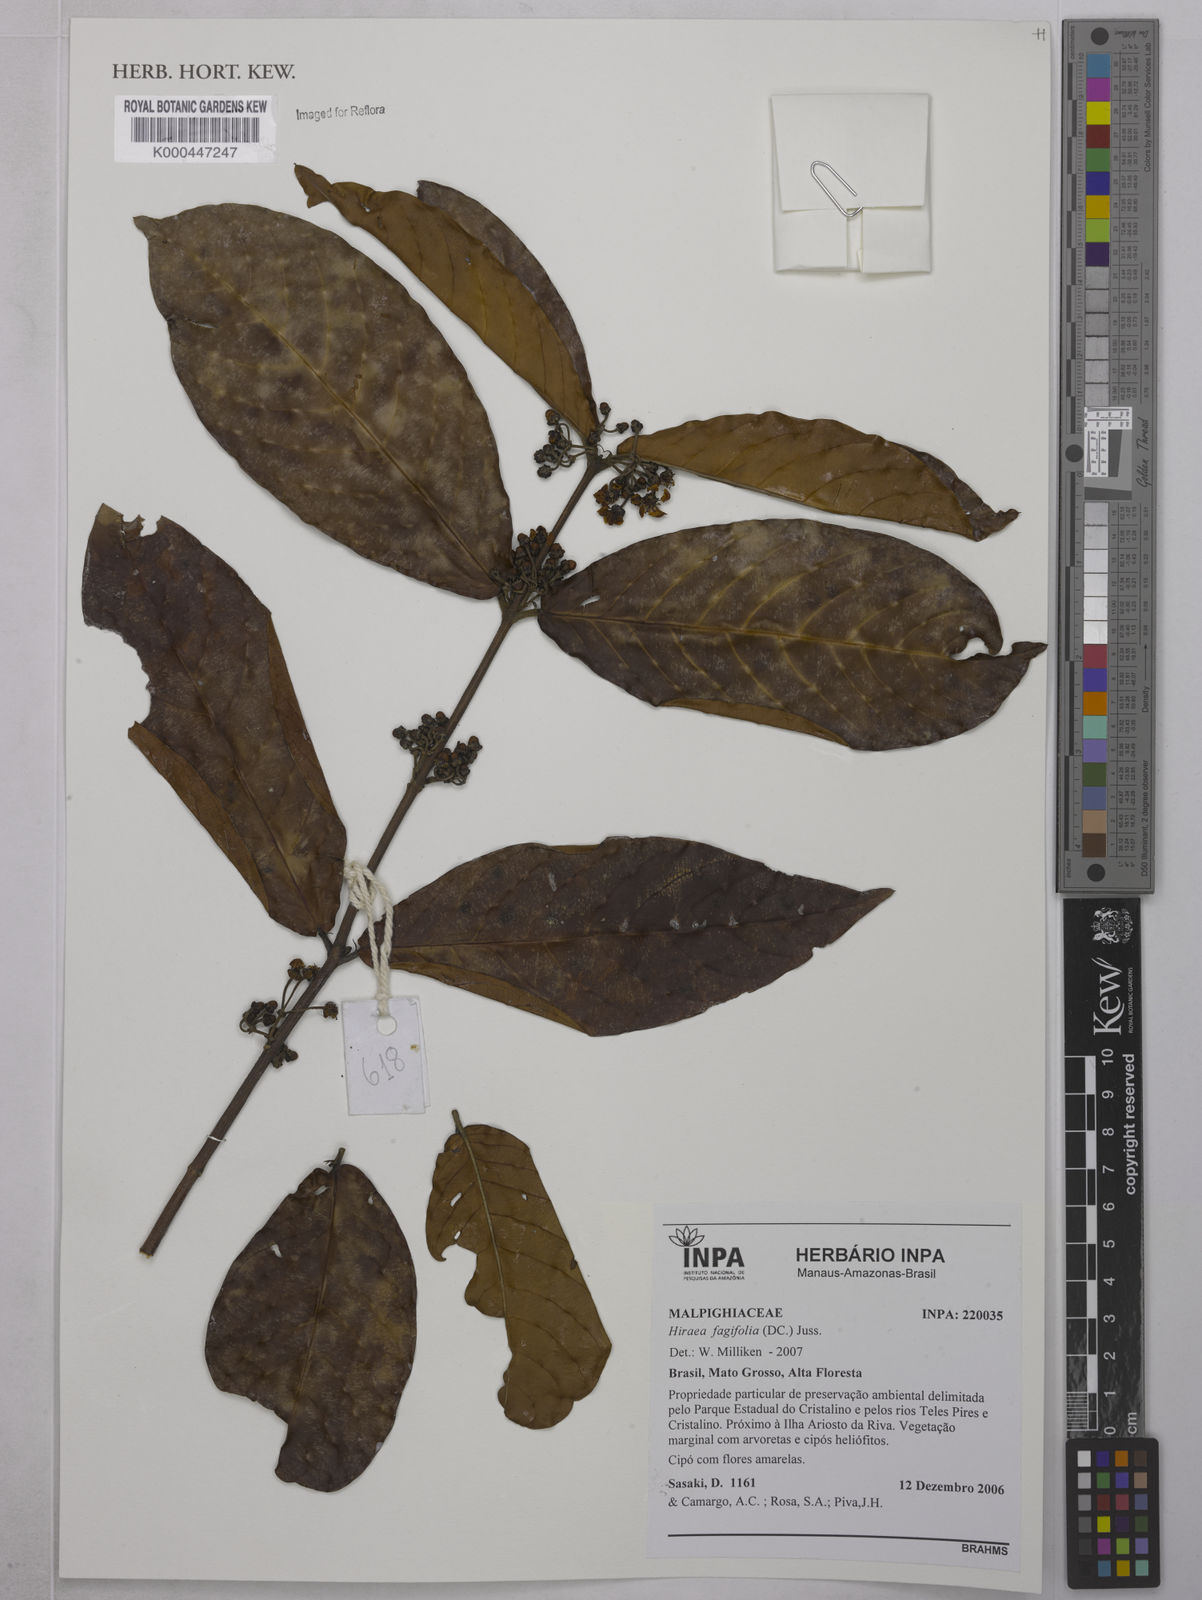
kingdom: Plantae
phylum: Tracheophyta
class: Magnoliopsida
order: Malpighiales
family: Malpighiaceae
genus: Hiraea
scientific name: Hiraea fagifolia
